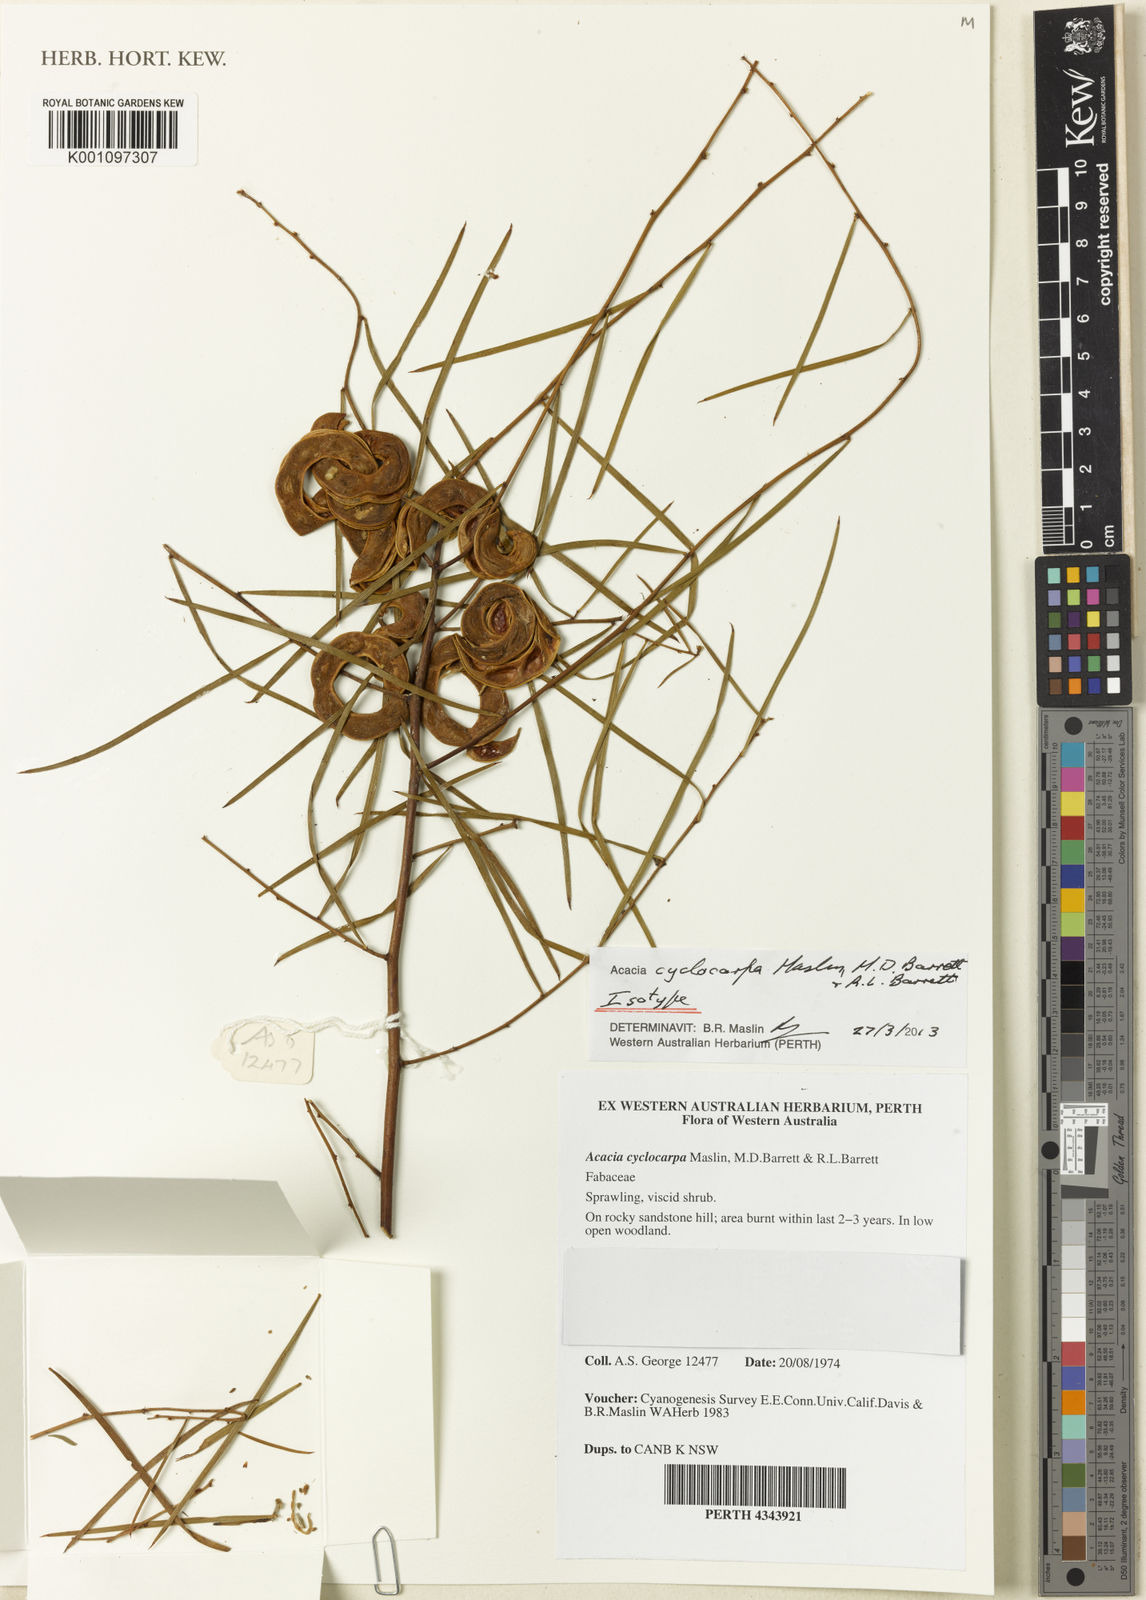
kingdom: Plantae
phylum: Tracheophyta
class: Magnoliopsida
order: Fabales
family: Fabaceae
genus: Acacia
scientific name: Acacia cyclocarpa
